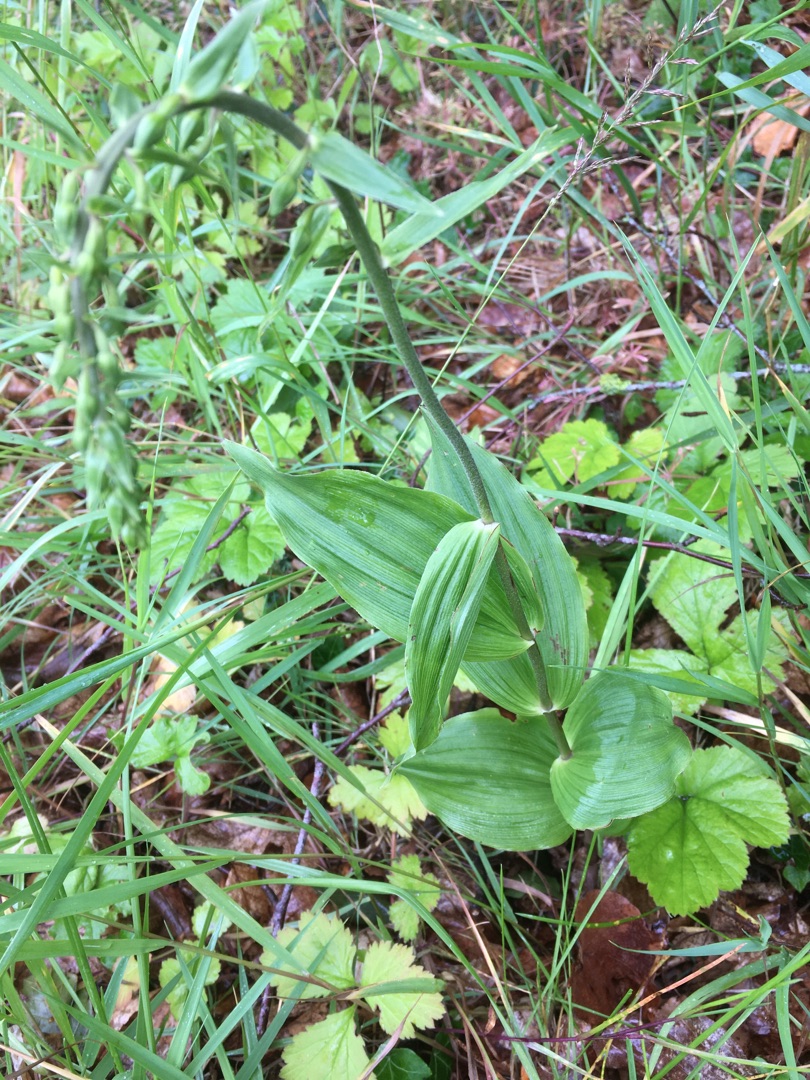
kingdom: Plantae
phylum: Tracheophyta
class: Liliopsida
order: Asparagales
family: Orchidaceae
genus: Epipactis
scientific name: Epipactis helleborine
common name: Skov-hullæbe
